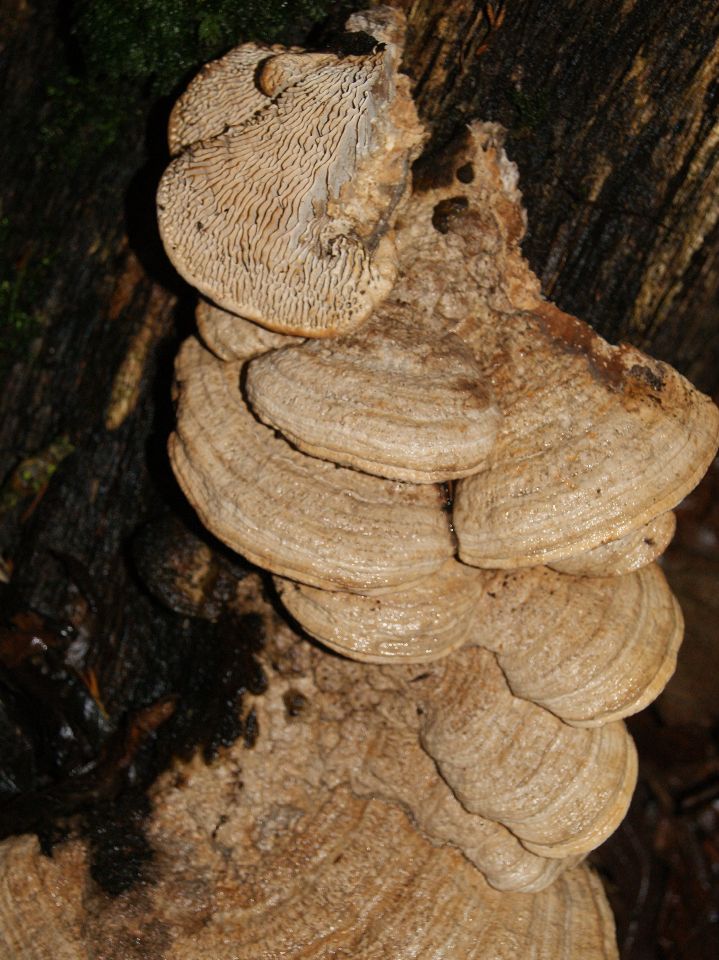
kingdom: Fungi
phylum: Basidiomycota
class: Agaricomycetes
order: Polyporales
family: Fomitopsidaceae
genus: Daedalea
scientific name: Daedalea quercina
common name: ege-labyrintsvamp
